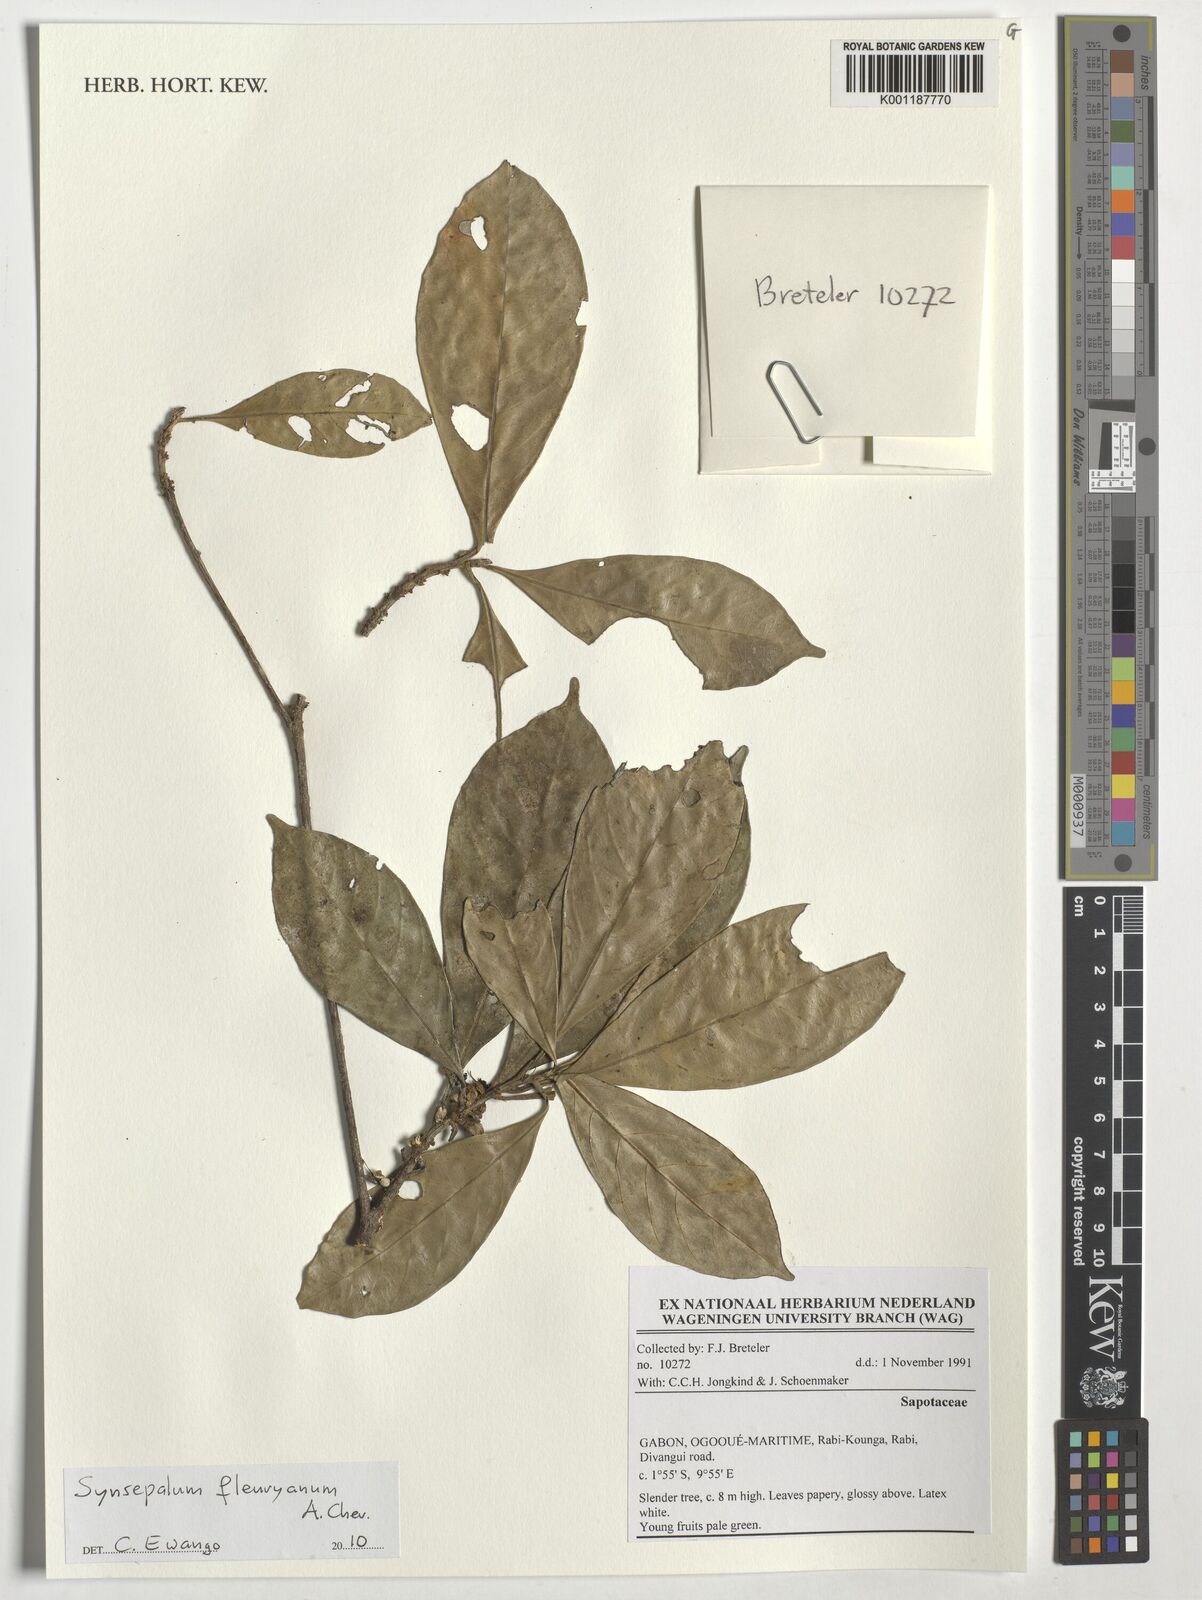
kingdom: Plantae
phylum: Tracheophyta
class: Magnoliopsida
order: Ericales
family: Sapotaceae
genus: Synsepalum
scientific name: Synsepalum fleuryanum
